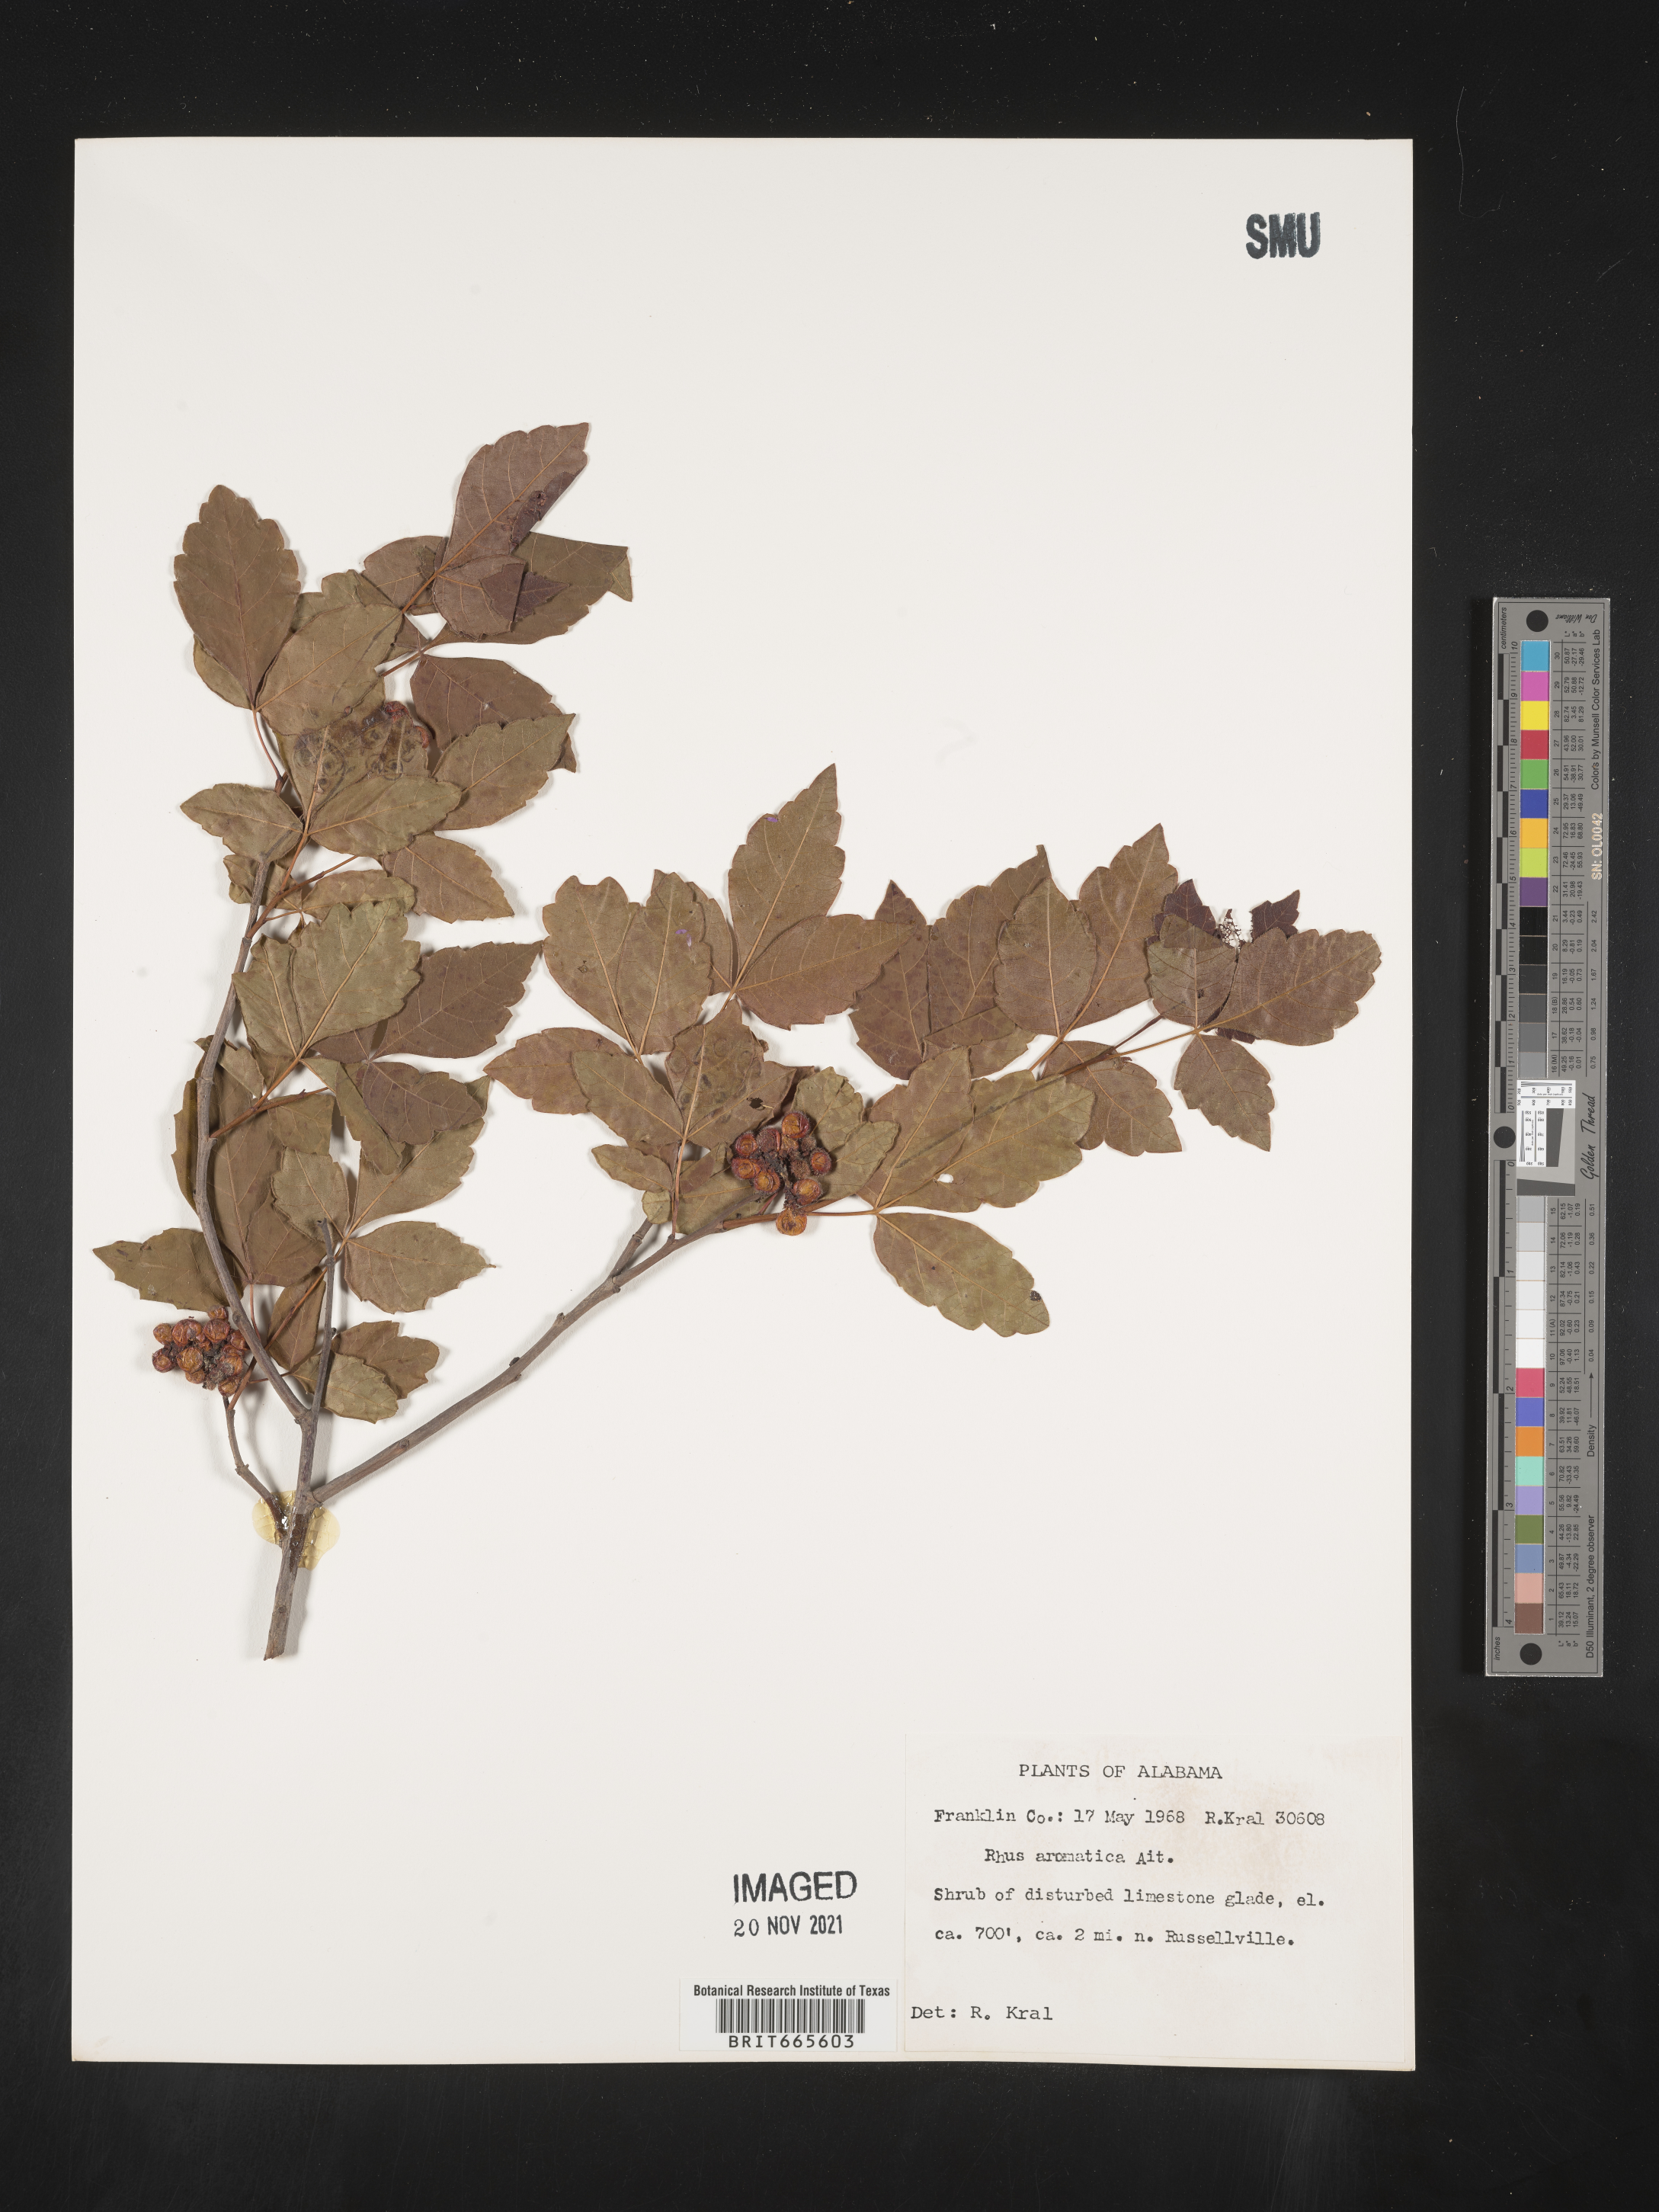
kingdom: Plantae
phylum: Tracheophyta
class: Magnoliopsida
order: Sapindales
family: Anacardiaceae
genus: Rhus
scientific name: Rhus aromatica
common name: Aromatic sumac
